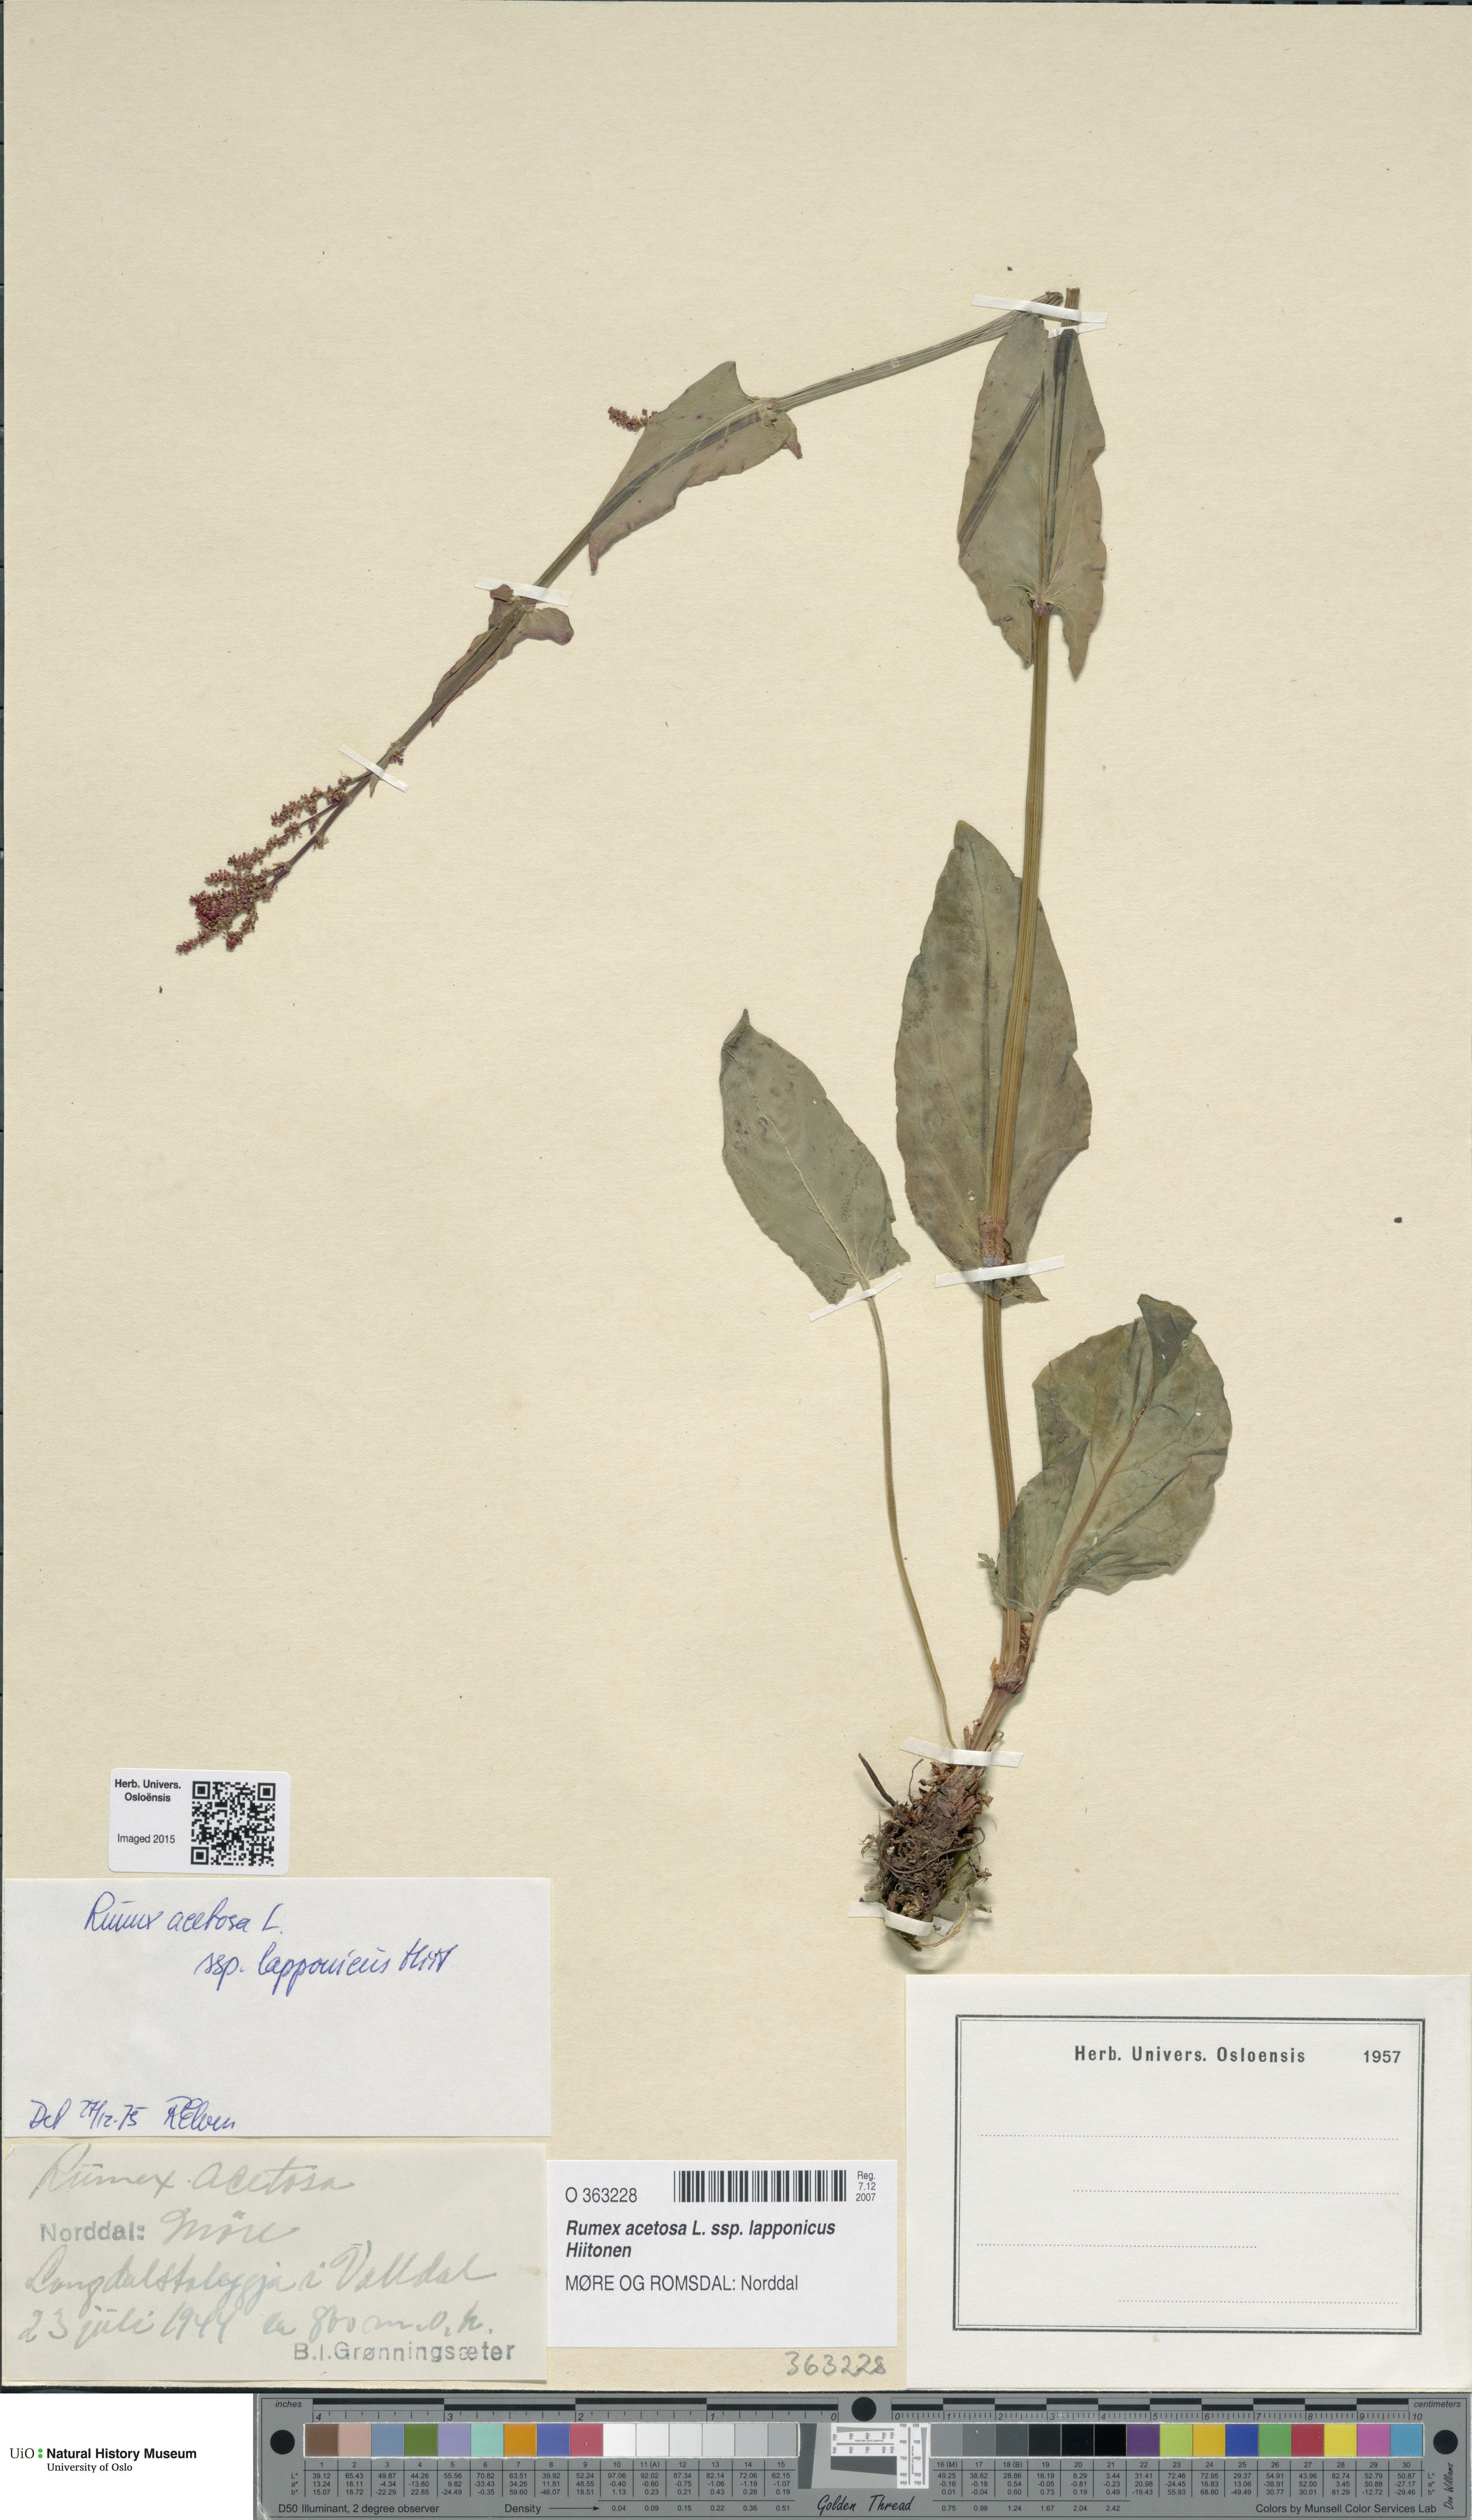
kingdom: Plantae
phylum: Tracheophyta
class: Magnoliopsida
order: Caryophyllales
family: Polygonaceae
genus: Rumex
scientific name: Rumex lapponicus
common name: Lapland mountain sorrel
